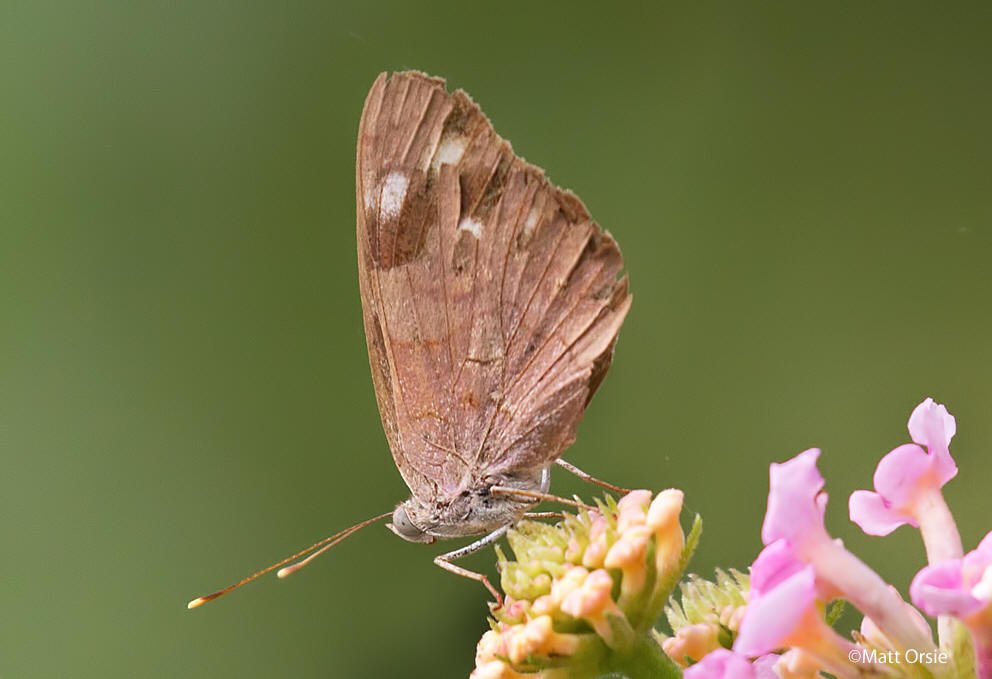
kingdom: Animalia
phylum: Arthropoda
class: Insecta
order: Lepidoptera
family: Nymphalidae
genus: Eunica
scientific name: Eunica monima
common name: Dingy Purplewing
